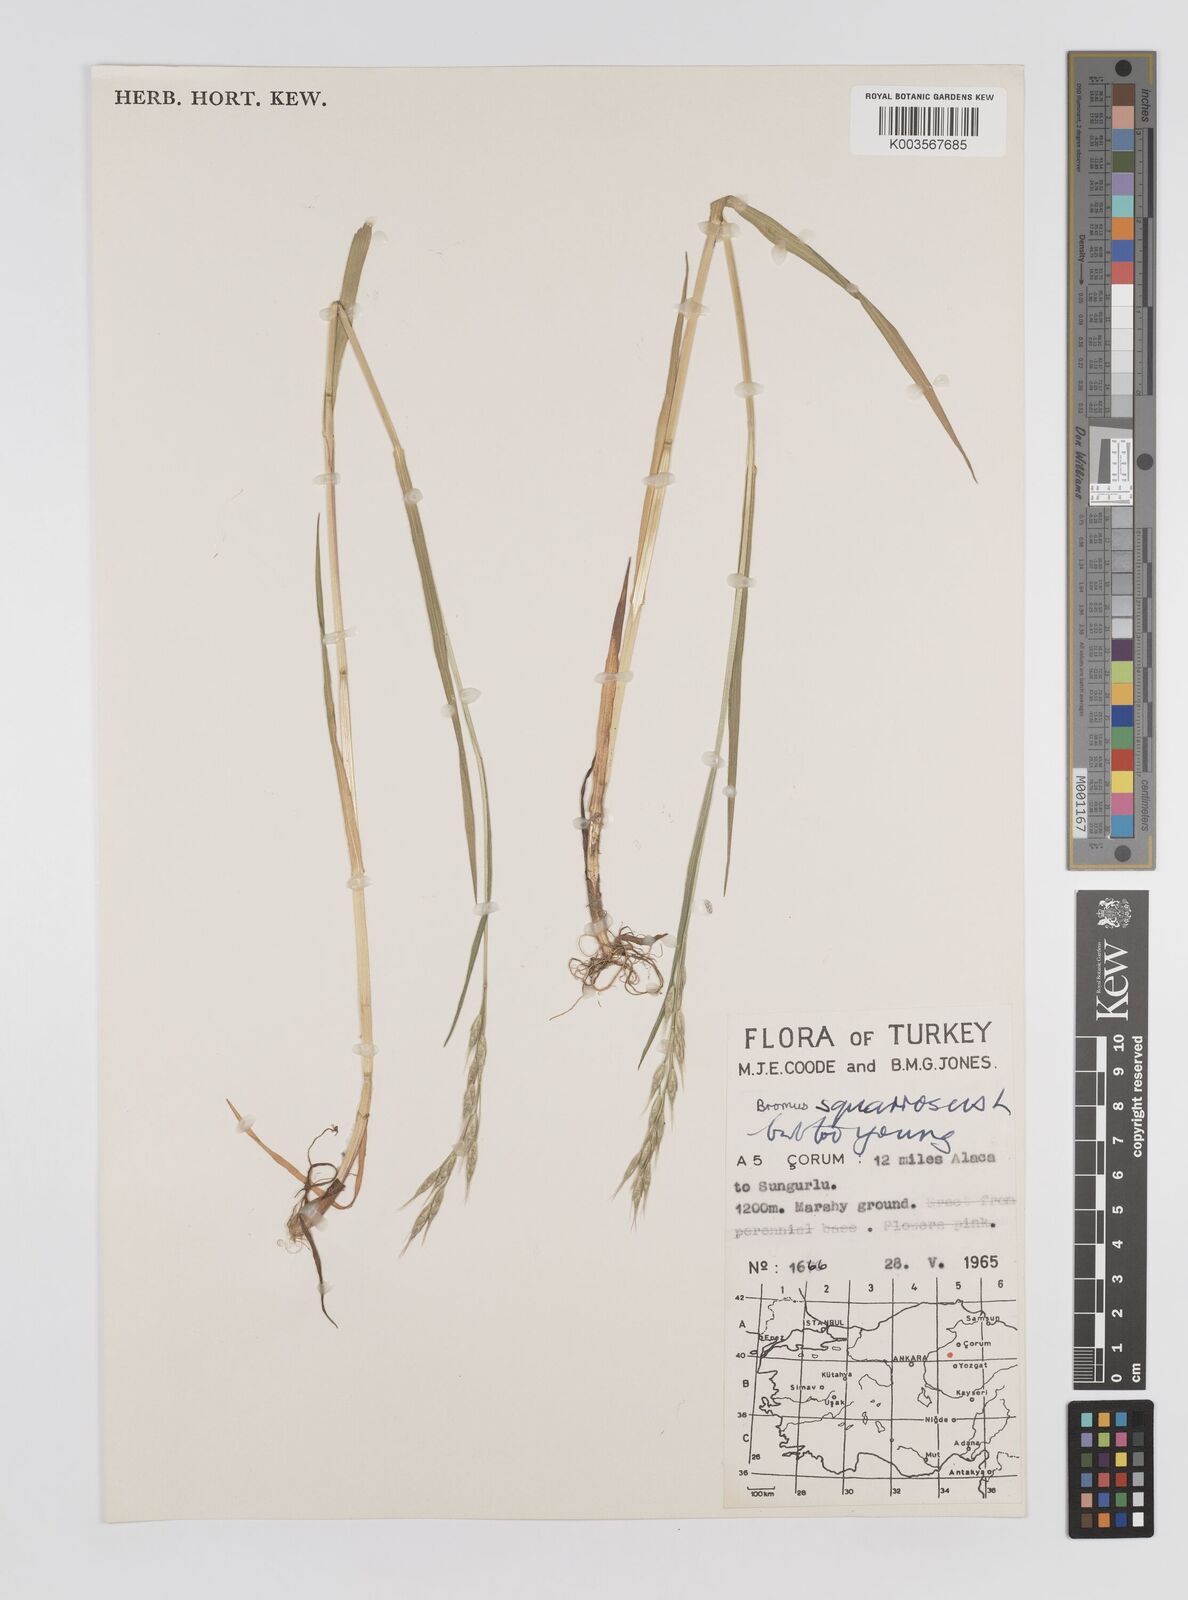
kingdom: Plantae
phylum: Tracheophyta
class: Liliopsida
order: Poales
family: Poaceae
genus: Bromus
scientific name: Bromus
